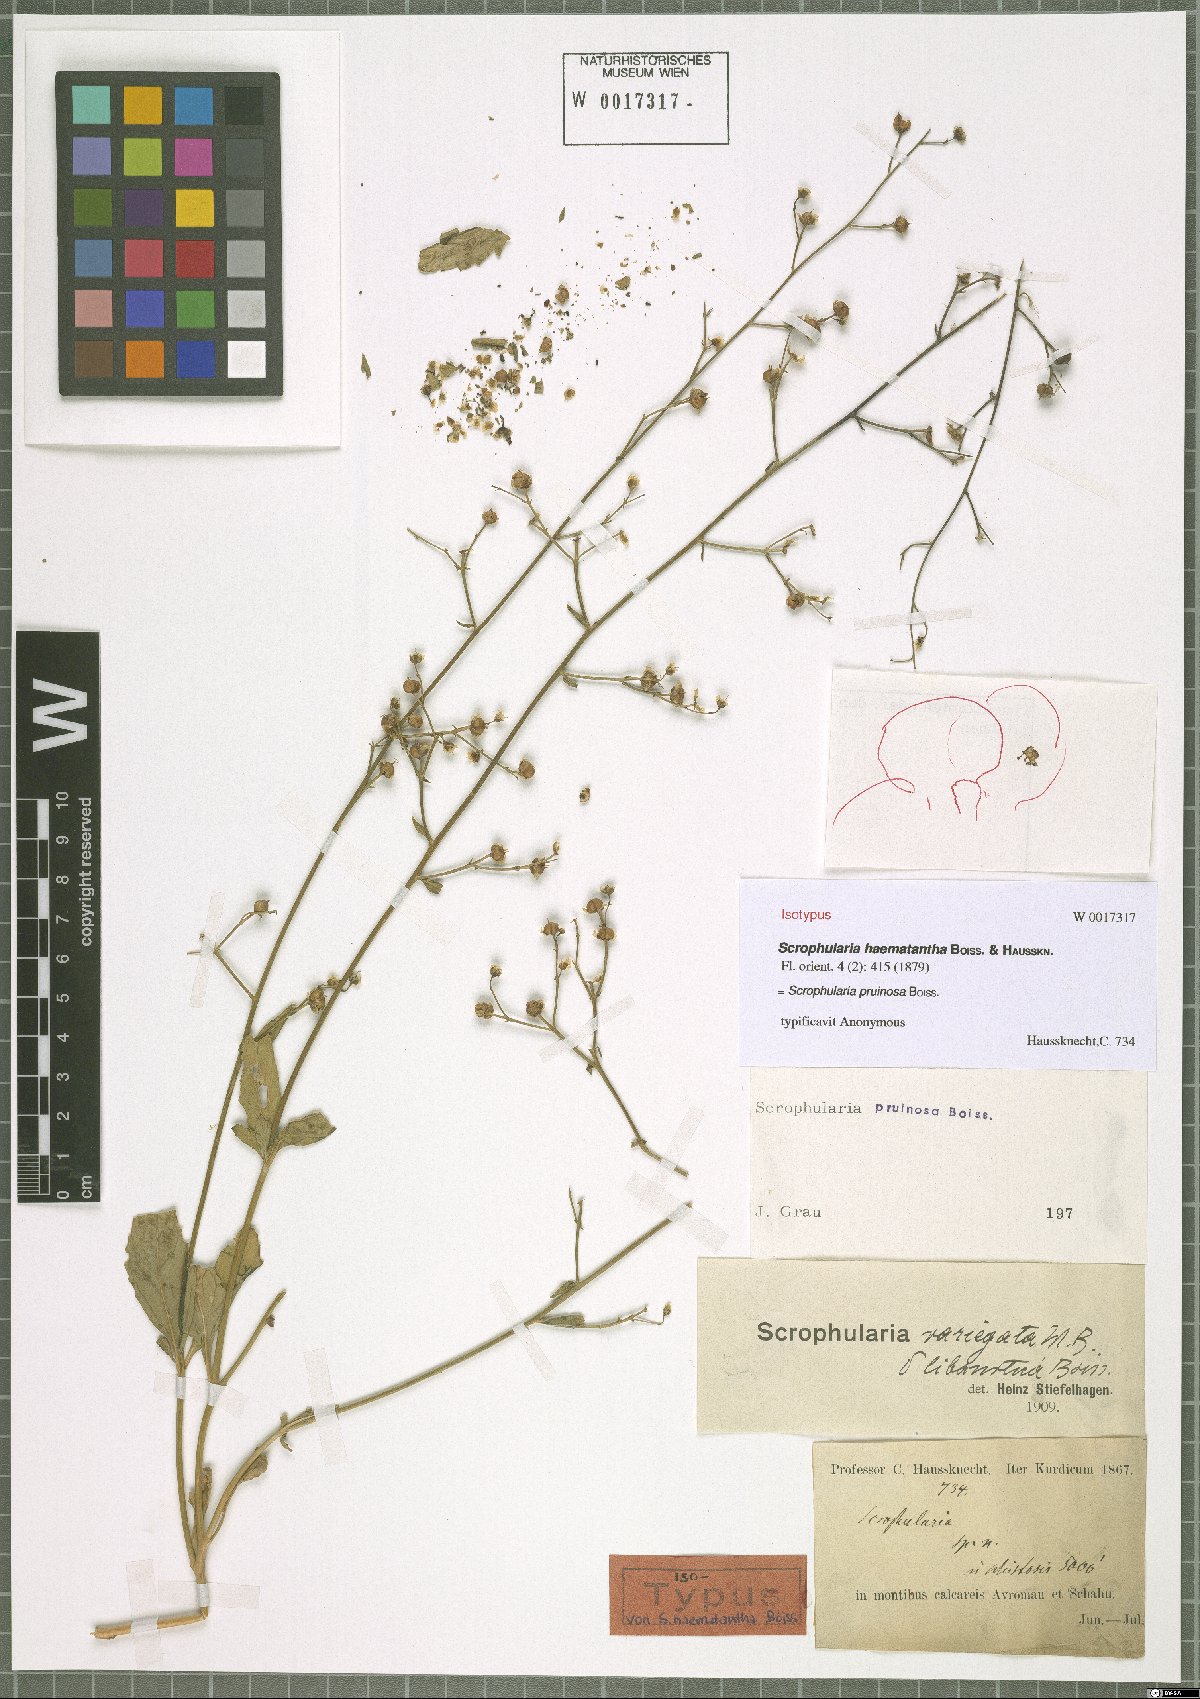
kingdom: Plantae
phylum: Tracheophyta
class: Magnoliopsida
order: Lamiales
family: Scrophulariaceae
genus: Scrophularia
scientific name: Scrophularia pruinosa
